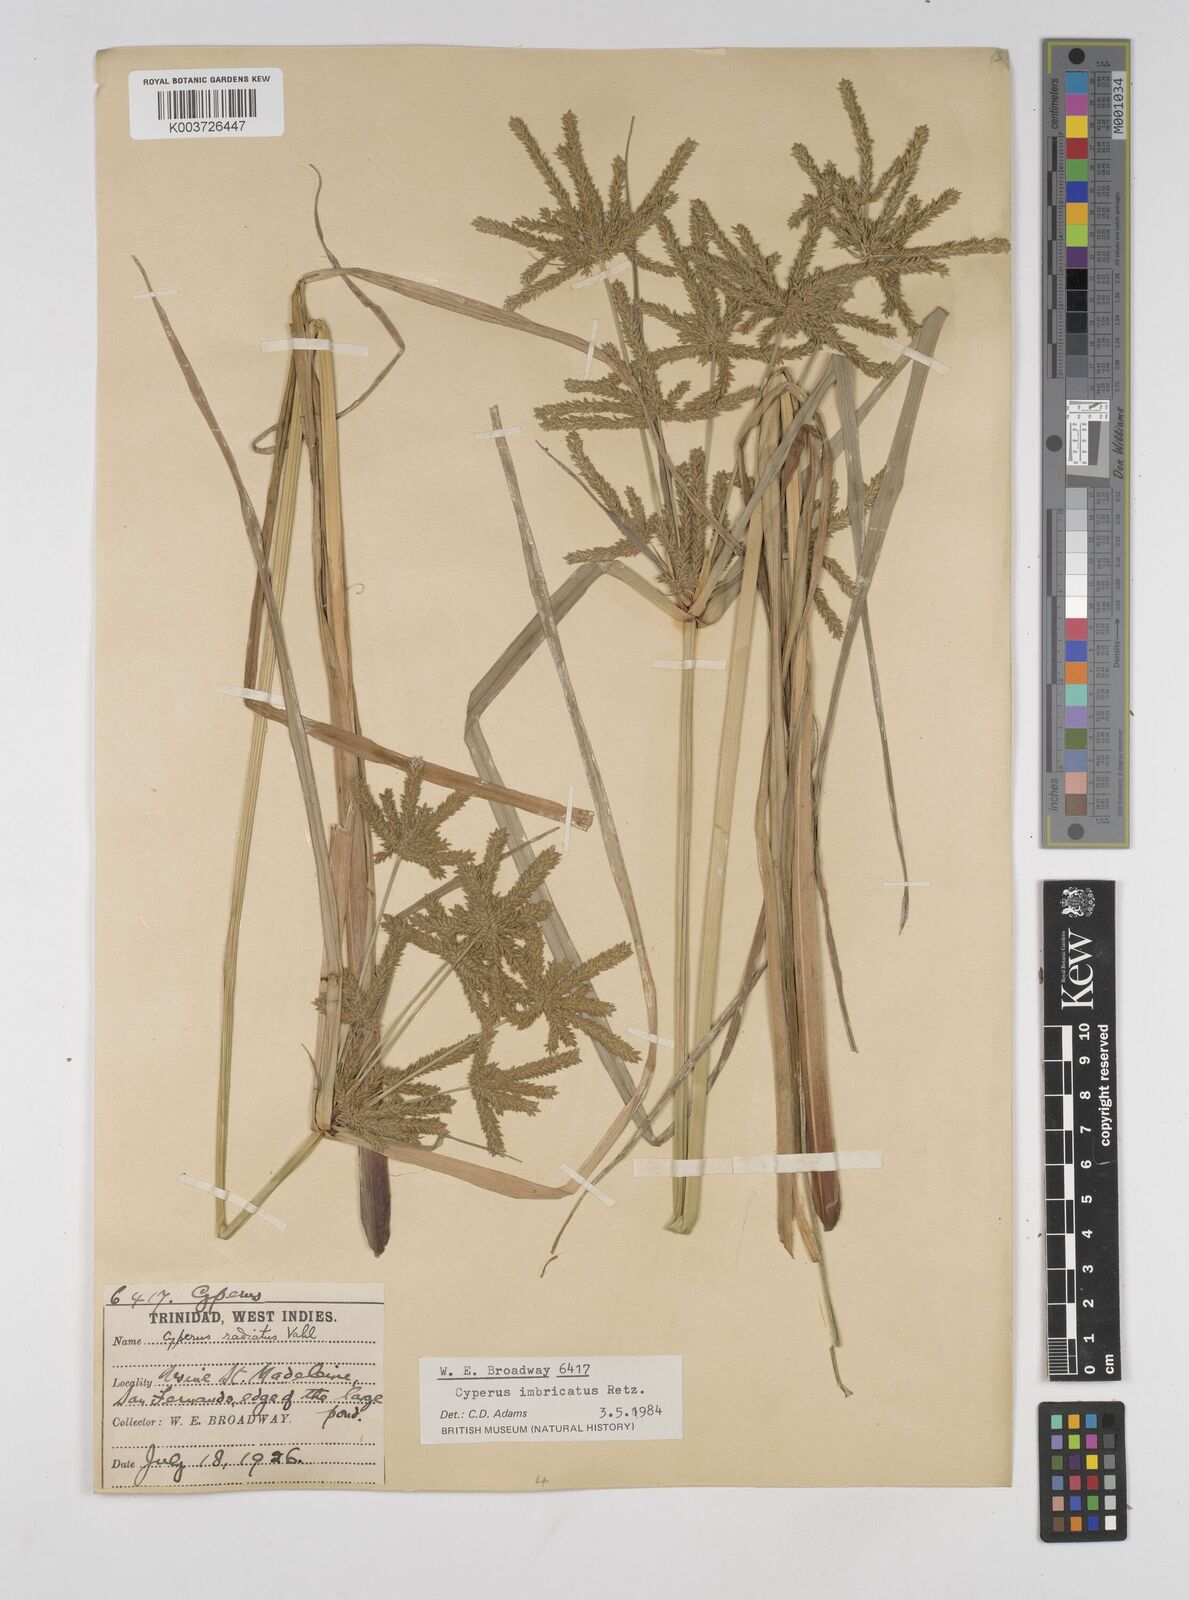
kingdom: Plantae
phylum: Tracheophyta
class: Liliopsida
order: Poales
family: Cyperaceae
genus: Cyperus
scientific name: Cyperus imbricatus
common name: Shingle flatsedge
